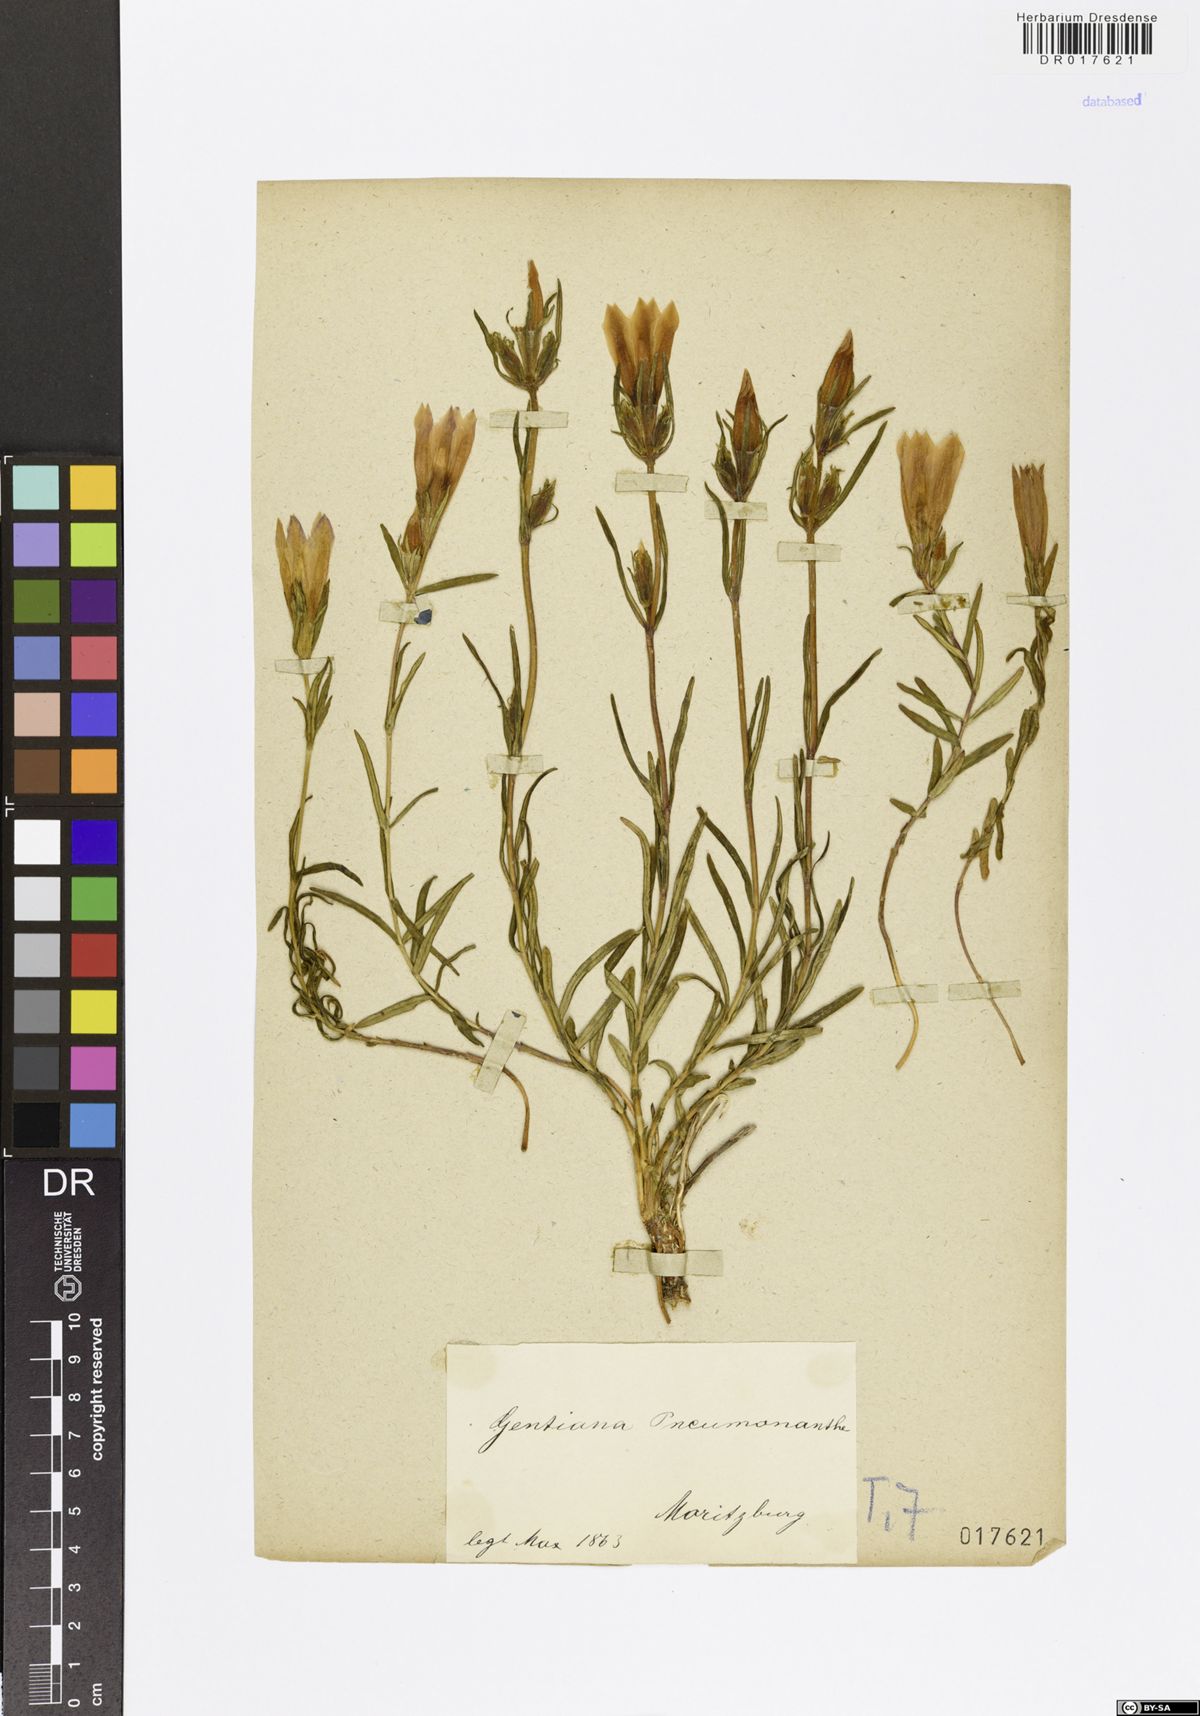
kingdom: Plantae
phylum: Tracheophyta
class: Magnoliopsida
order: Gentianales
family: Gentianaceae
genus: Gentiana
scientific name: Gentiana pneumonanthe
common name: Marsh gentian
